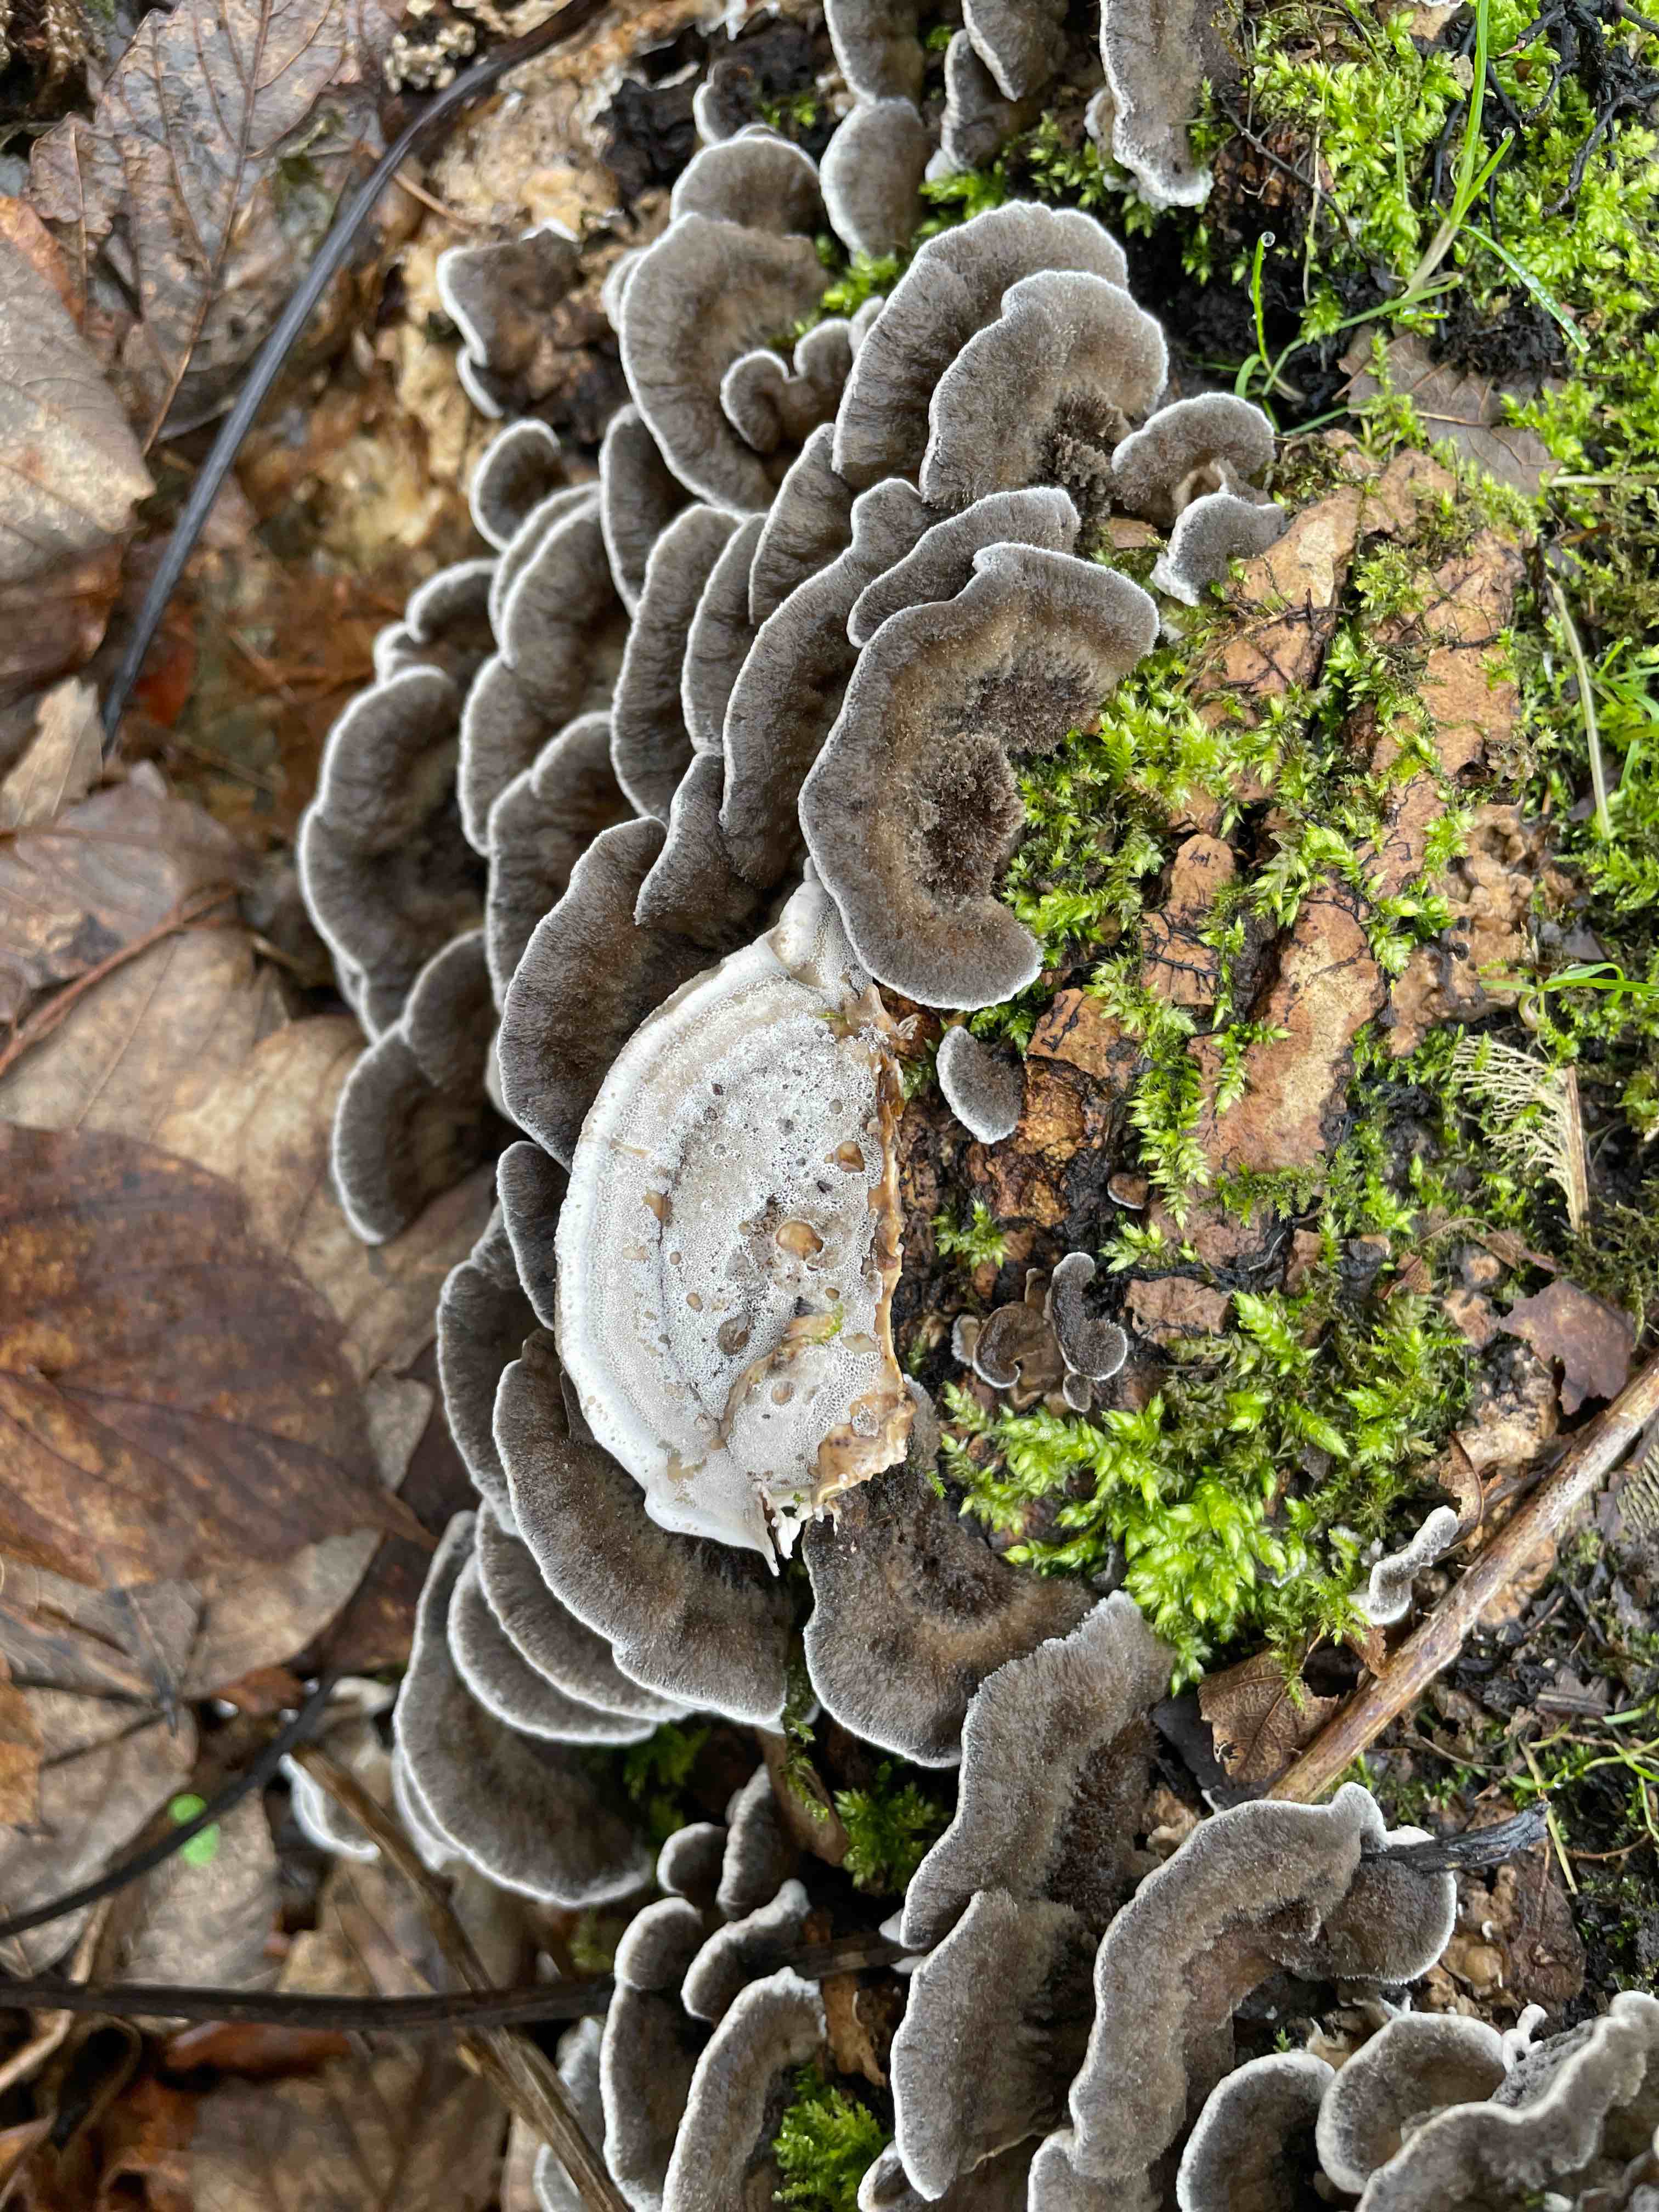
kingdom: Fungi
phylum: Basidiomycota
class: Agaricomycetes
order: Polyporales
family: Phanerochaetaceae
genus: Bjerkandera
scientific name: Bjerkandera adusta
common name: sveden sodporesvamp
